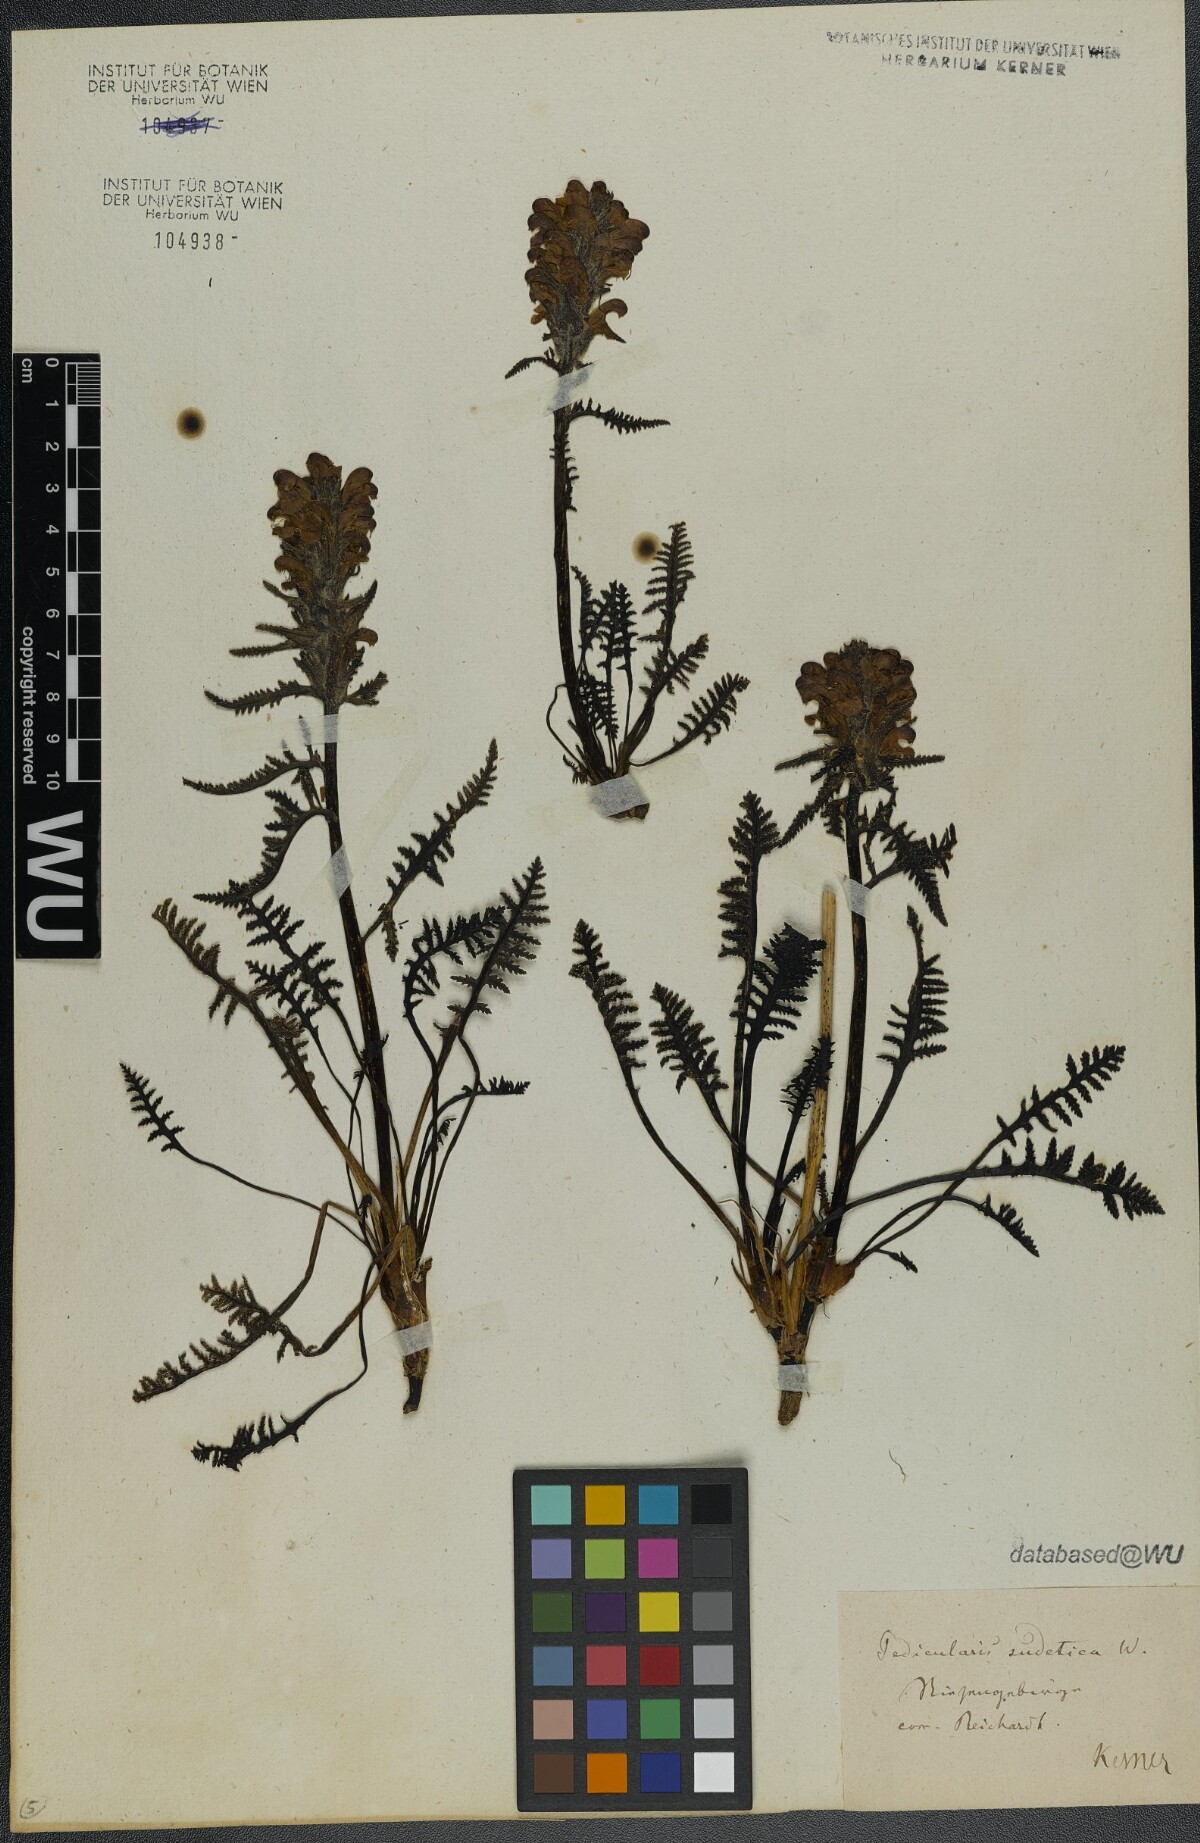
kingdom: Plantae
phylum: Tracheophyta
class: Magnoliopsida
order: Lamiales
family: Orobanchaceae
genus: Pedicularis
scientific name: Pedicularis sudetica
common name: Sudeten lousewort
